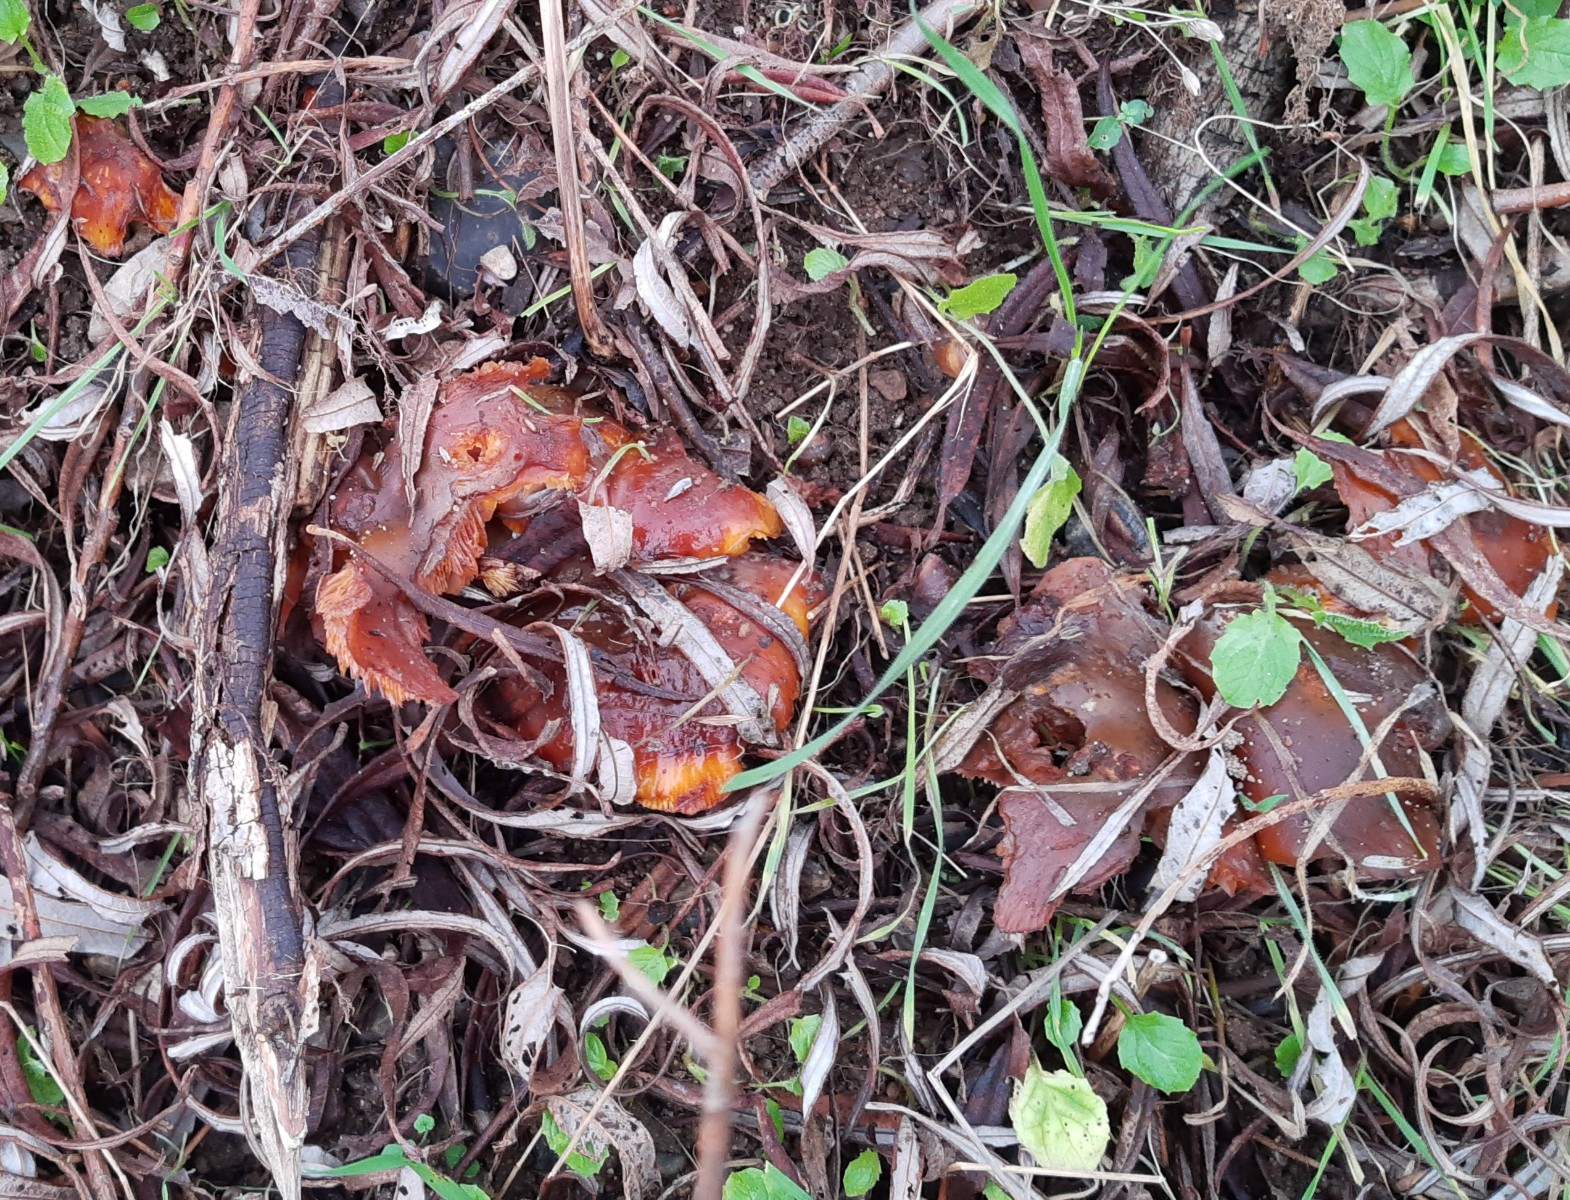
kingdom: Fungi
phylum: Basidiomycota
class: Agaricomycetes
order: Agaricales
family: Physalacriaceae
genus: Flammulina
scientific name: Flammulina
